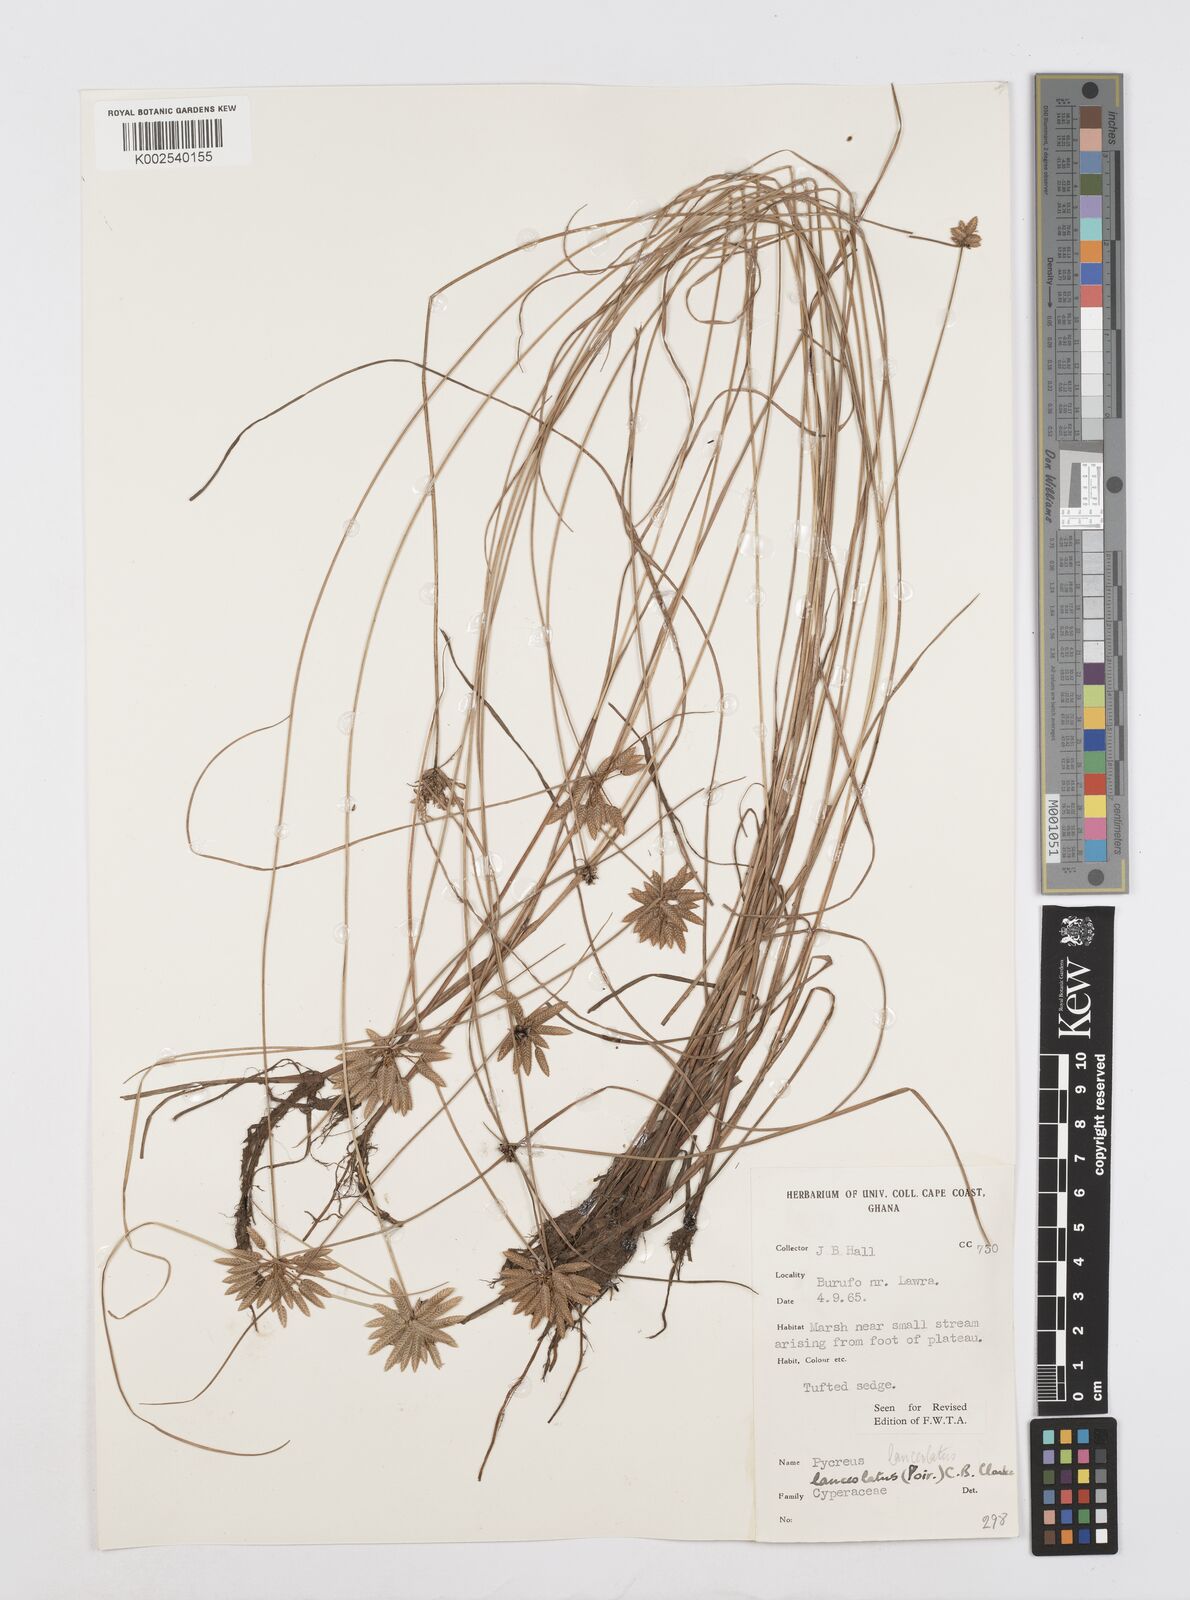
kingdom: Plantae
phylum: Tracheophyta
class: Liliopsida
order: Poales
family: Cyperaceae
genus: Cyperus
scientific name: Cyperus
